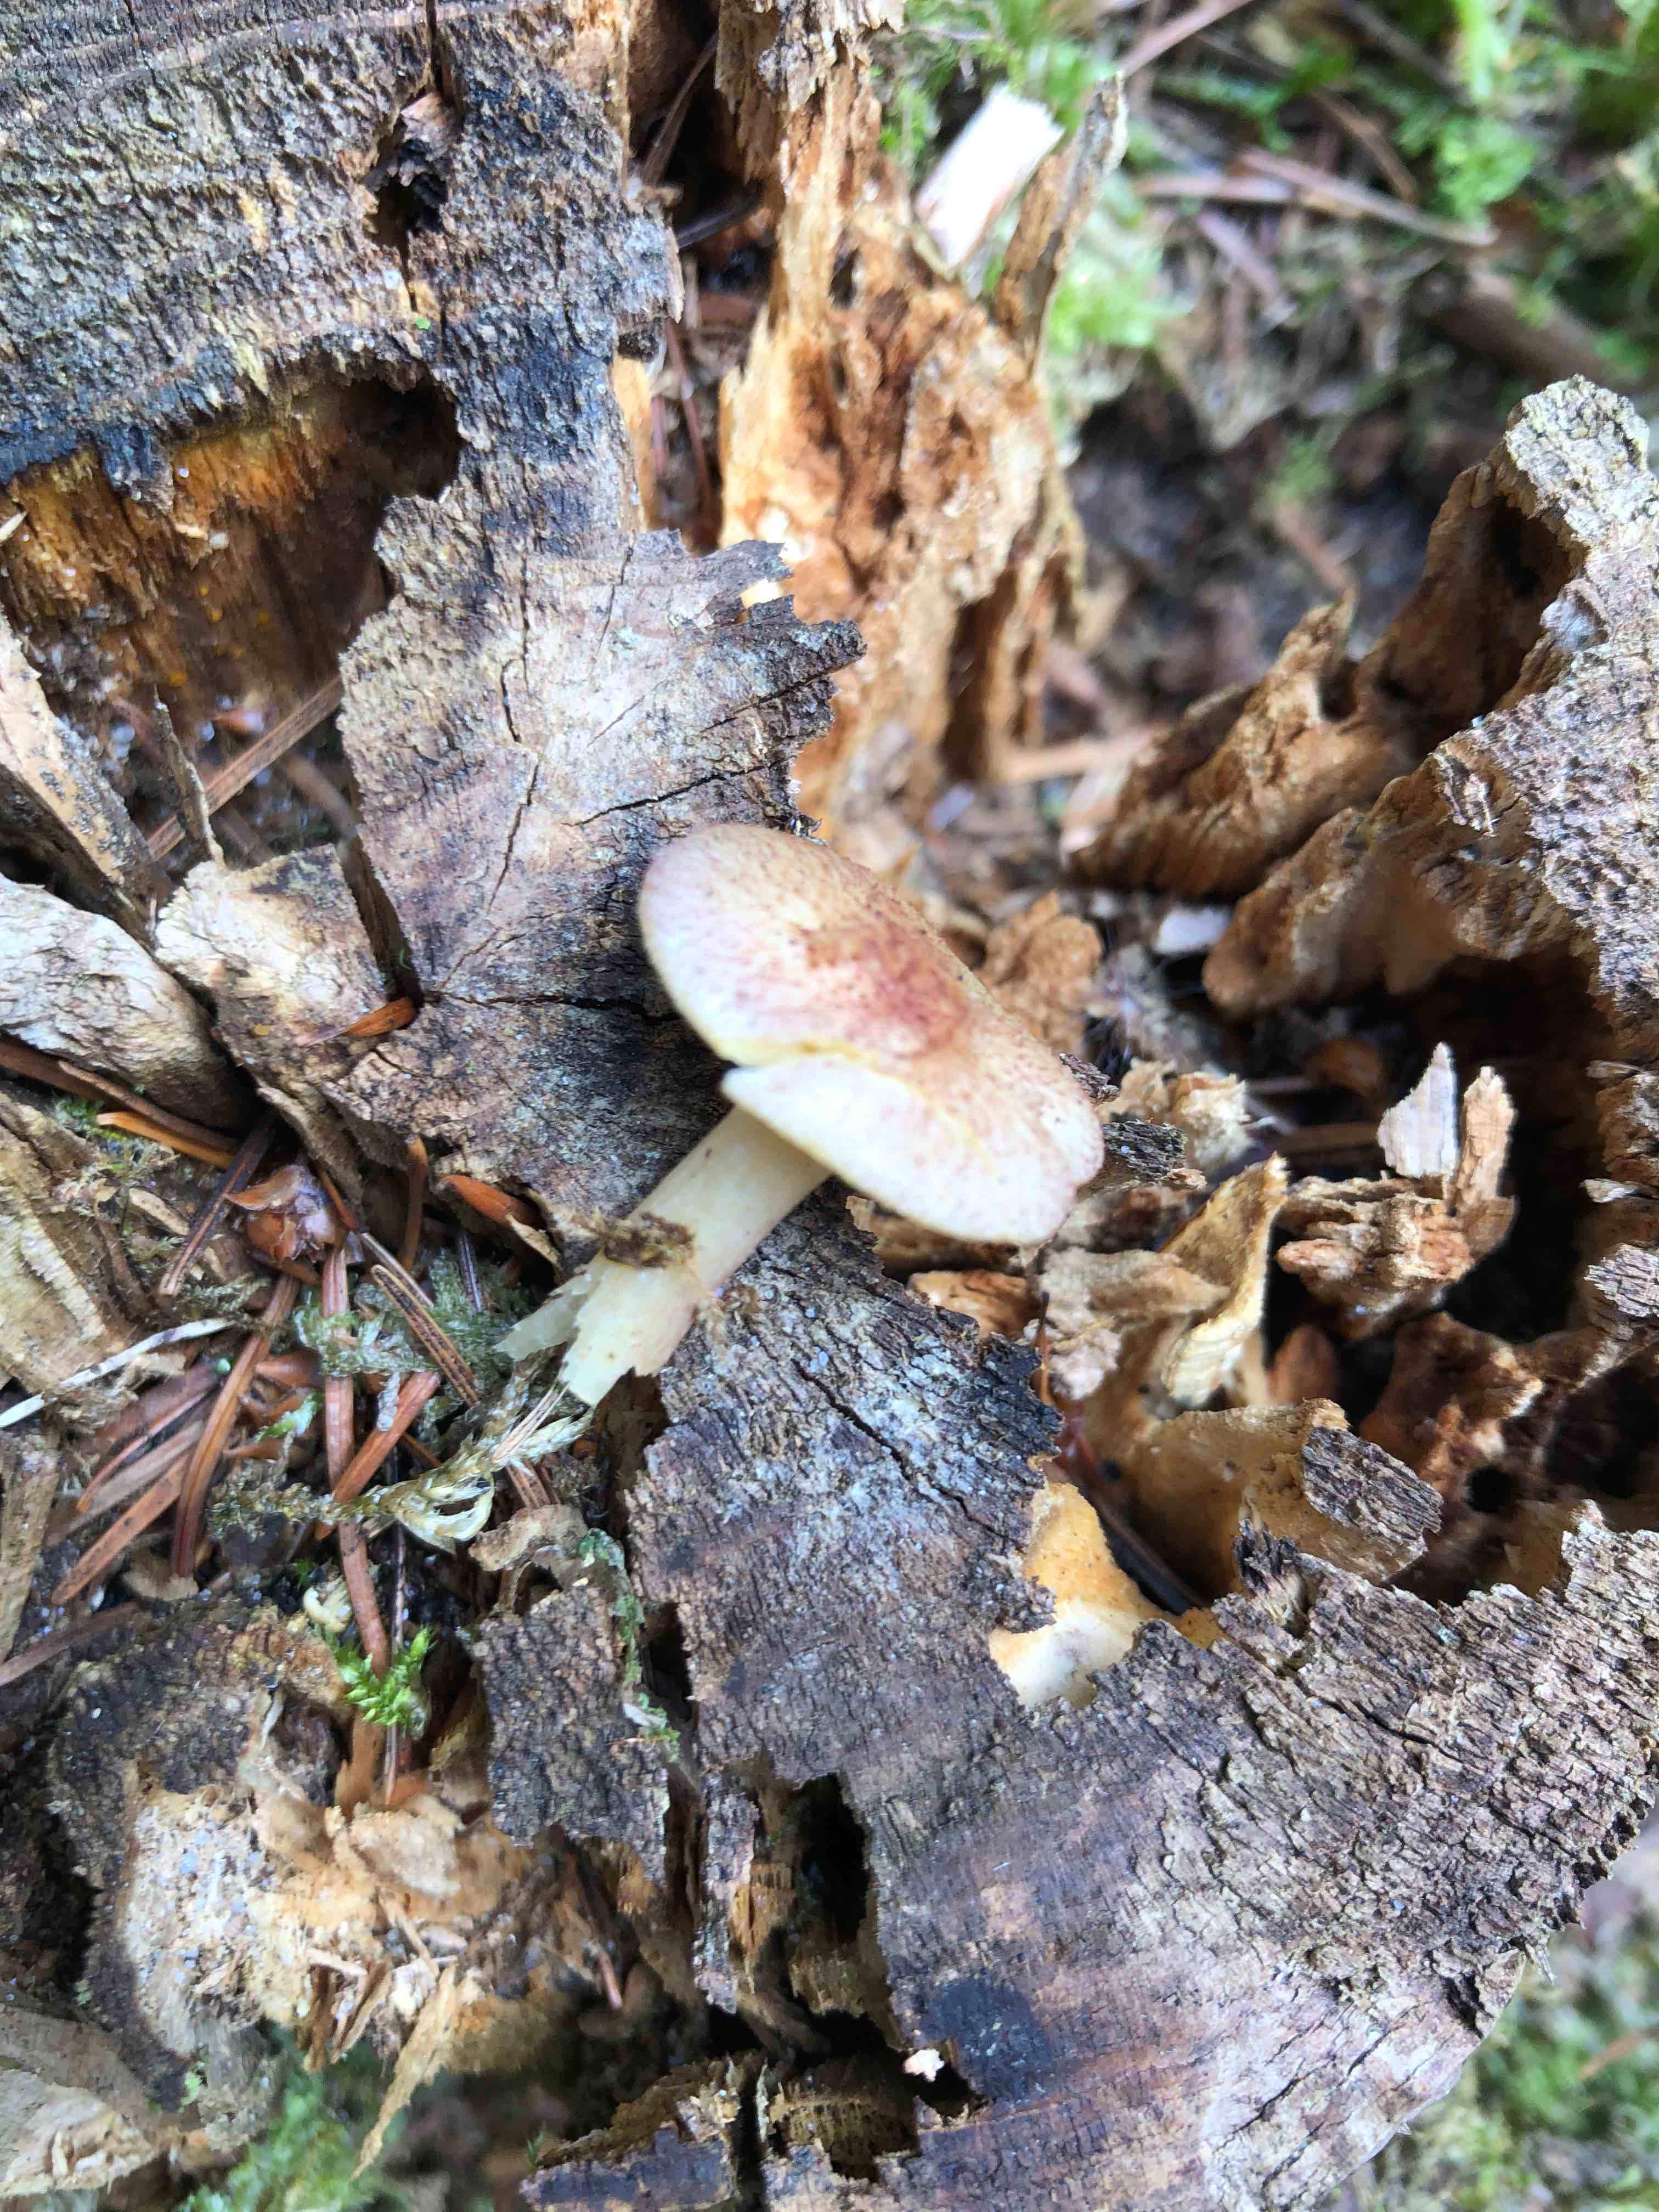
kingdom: Fungi
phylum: Basidiomycota
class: Agaricomycetes
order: Agaricales
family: Tricholomataceae
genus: Tricholomopsis
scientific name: Tricholomopsis rutilans
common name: purpur-væbnerhat
